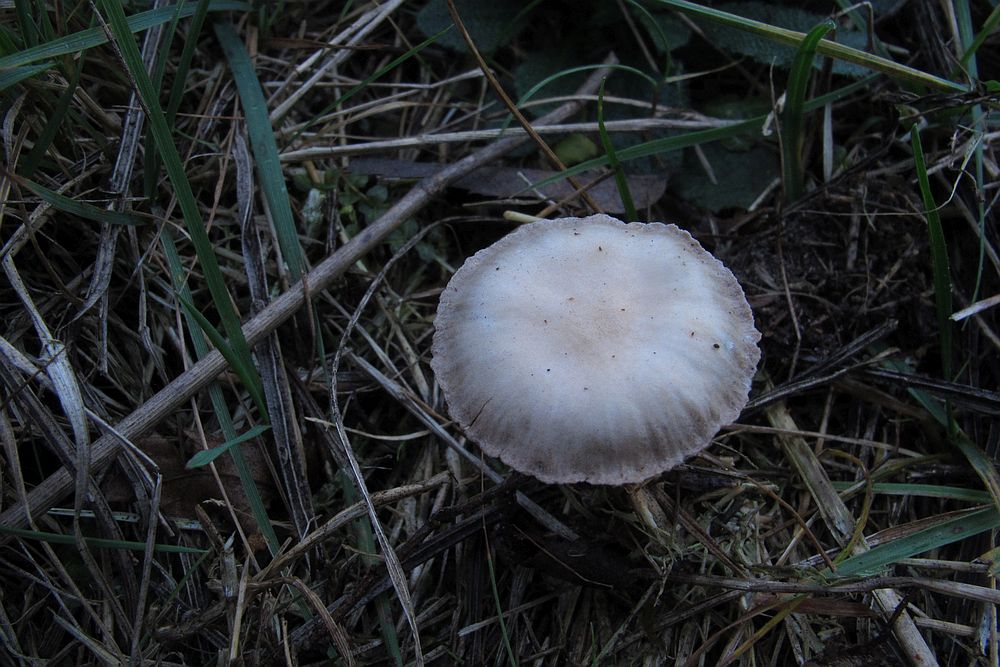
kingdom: Fungi
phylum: Basidiomycota
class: Agaricomycetes
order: Agaricales
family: Strophariaceae
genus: Deconica
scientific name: Deconica inquilina
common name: græs-stråhat
